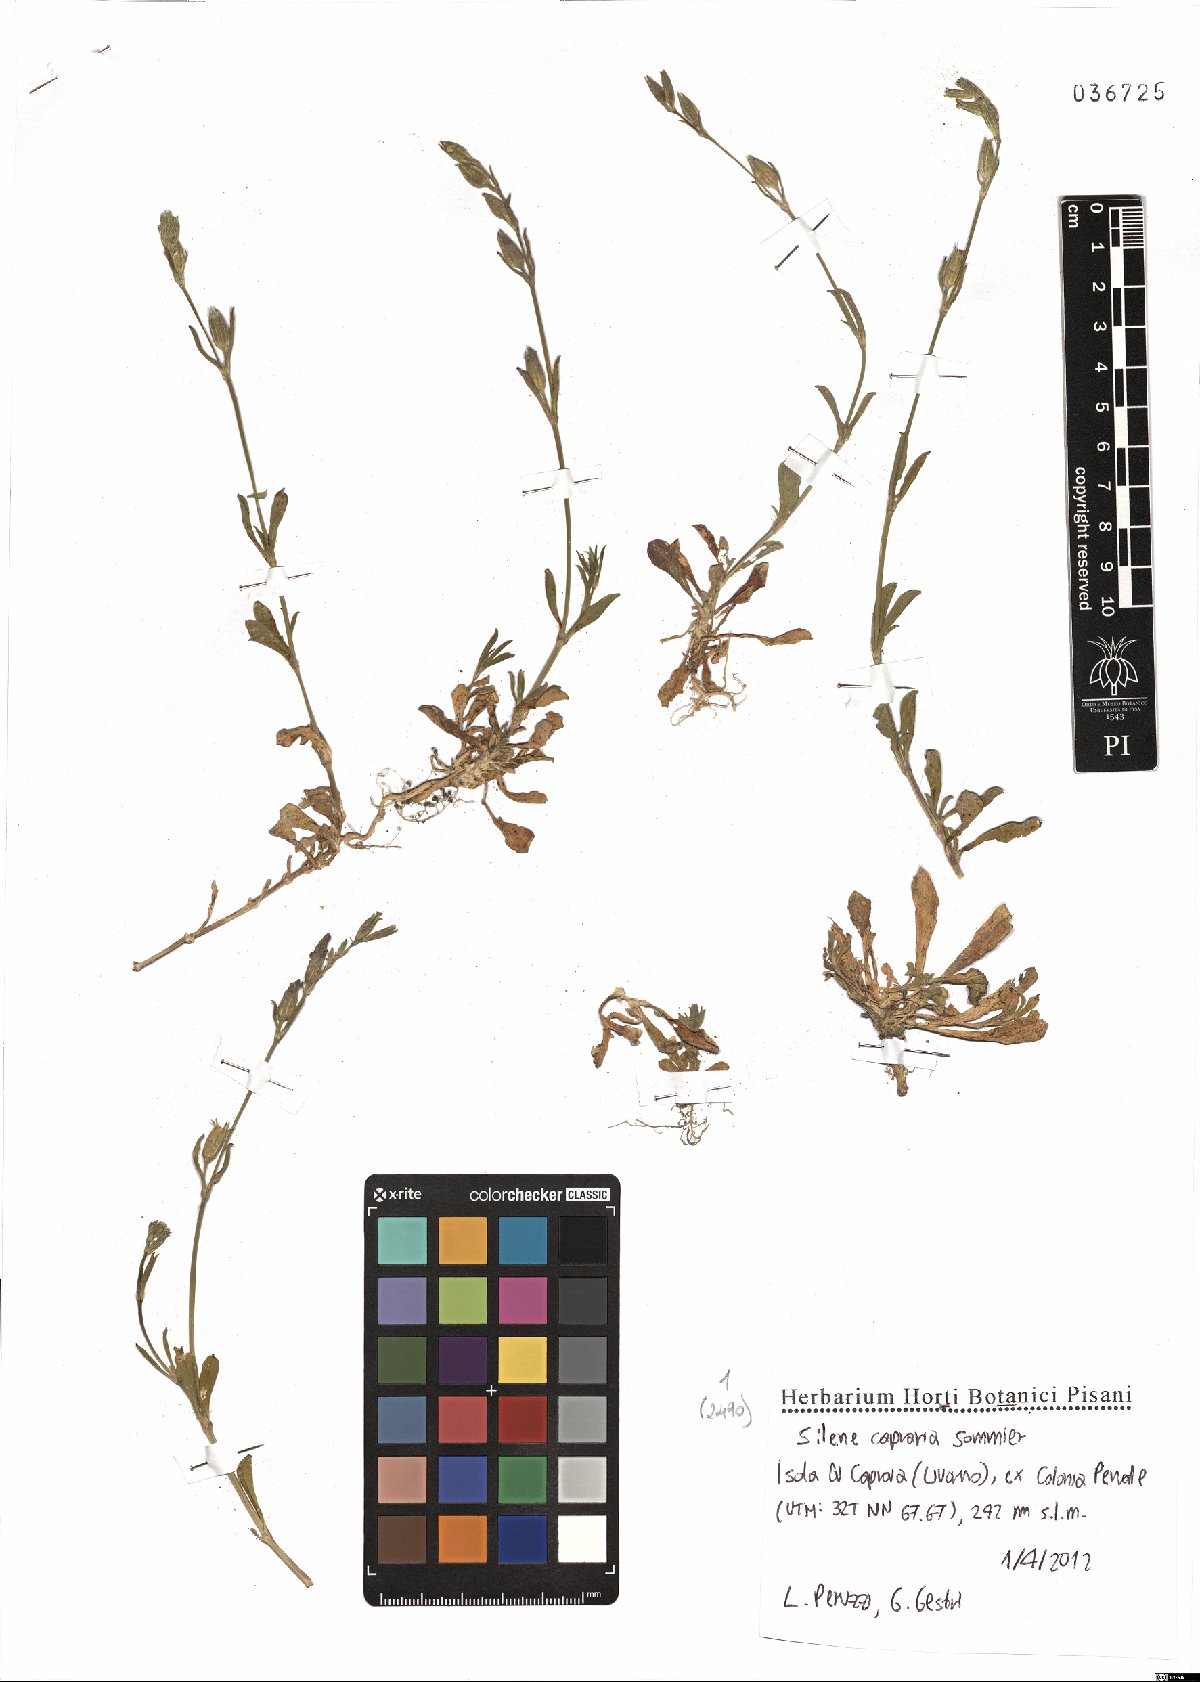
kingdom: Plantae
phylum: Tracheophyta
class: Magnoliopsida
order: Caryophyllales
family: Caryophyllaceae
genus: Silene
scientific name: Silene nocturna
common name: Mediterranean catchfly
